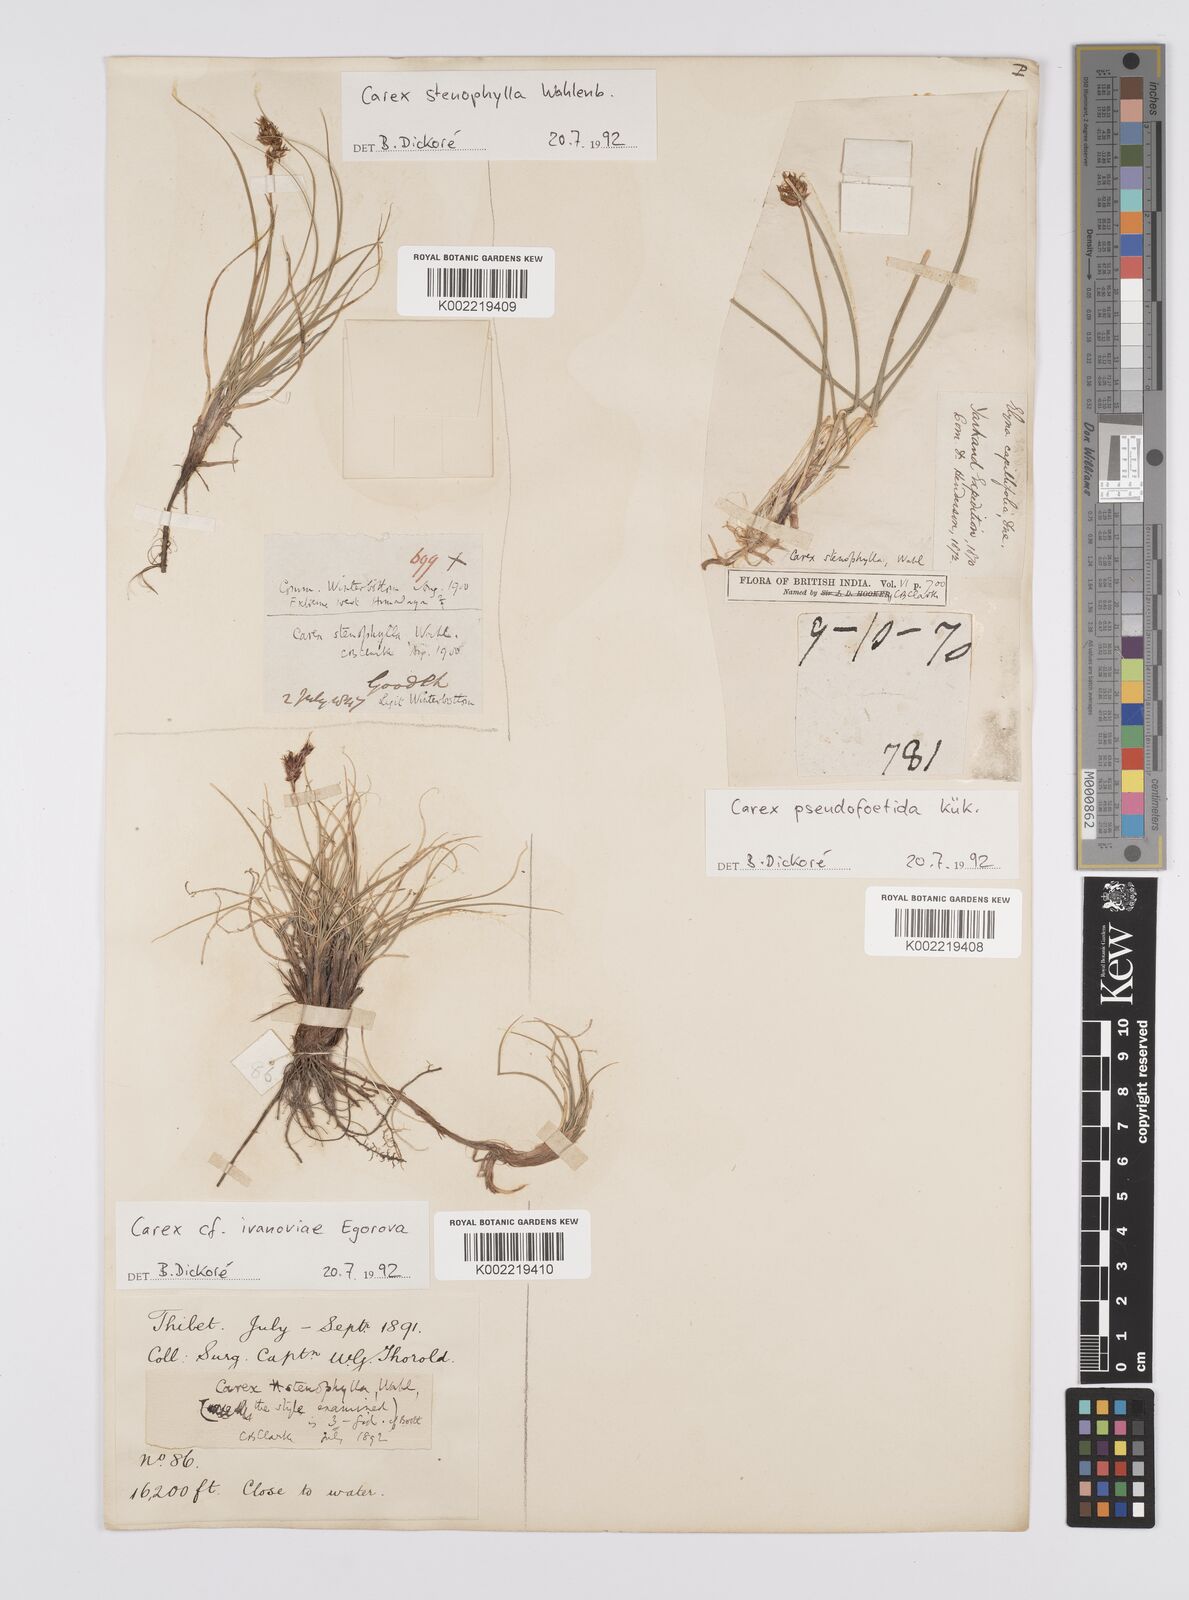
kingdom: Plantae
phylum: Tracheophyta
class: Liliopsida
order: Poales
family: Cyperaceae
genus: Carex
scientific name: Carex stenophylla
